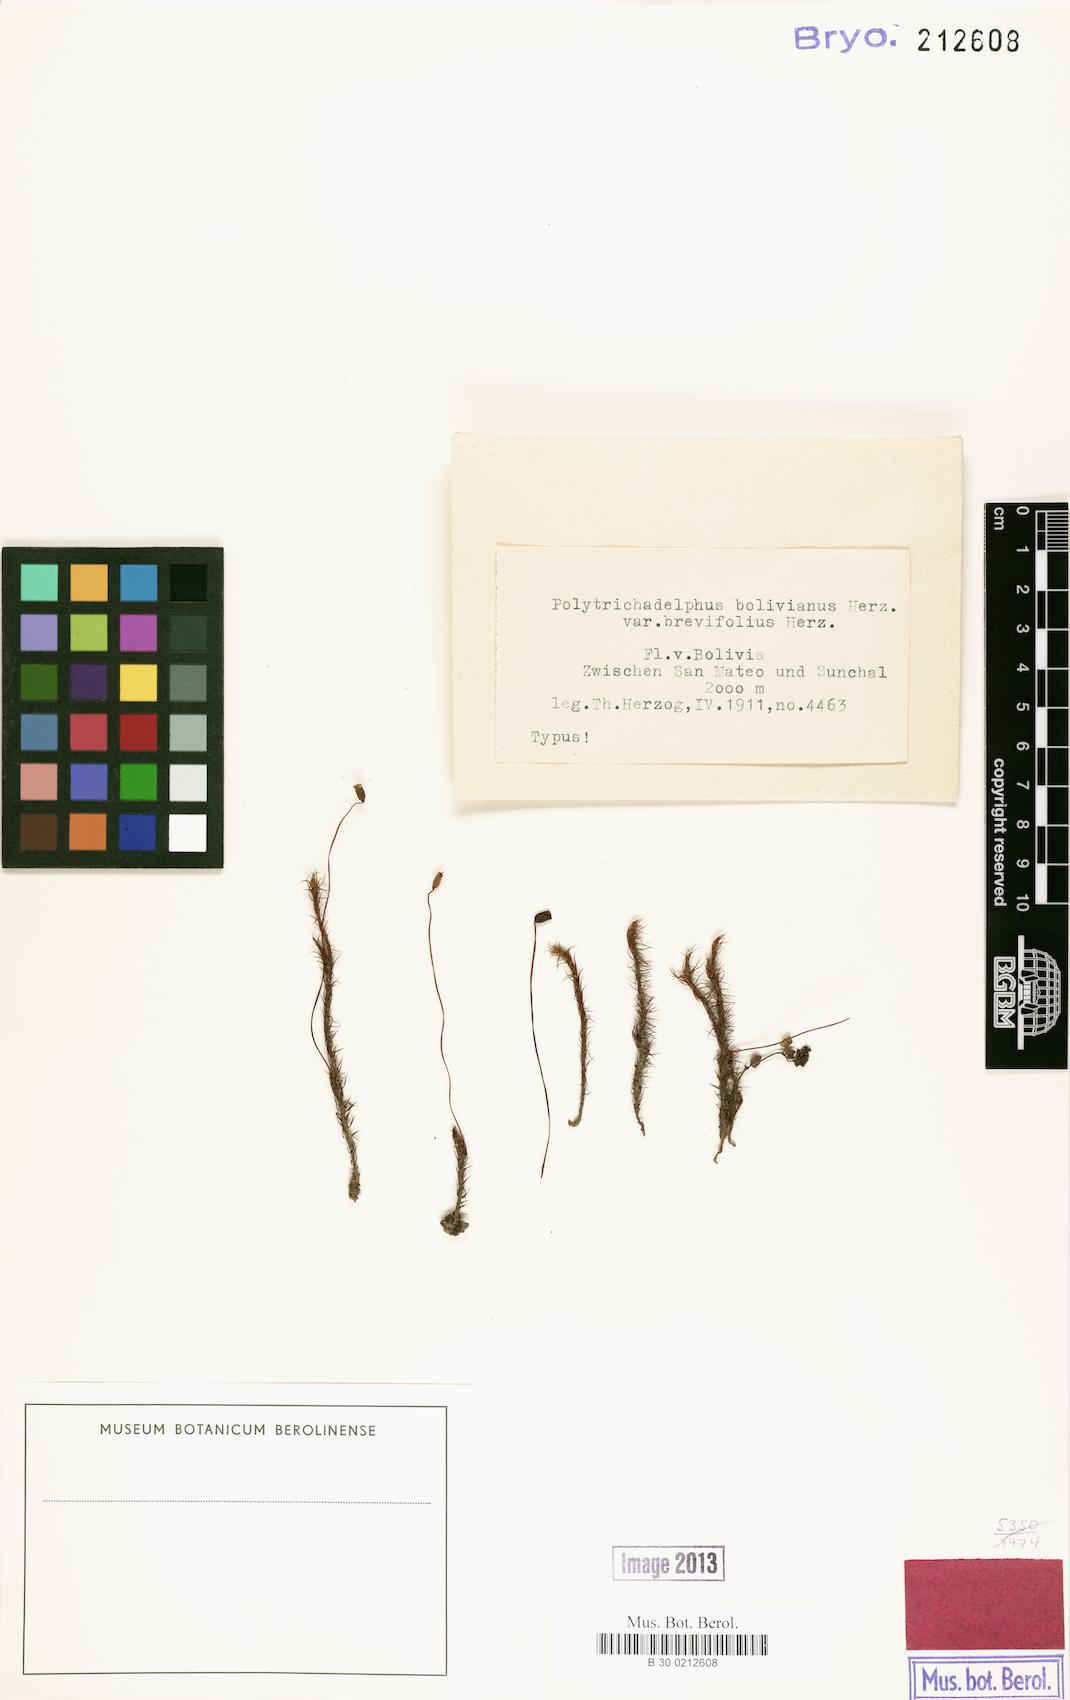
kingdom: Plantae
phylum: Bryophyta
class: Polytrichopsida
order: Polytrichales
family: Polytrichaceae
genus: Polytrichadelphus
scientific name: Polytrichadelphus longisetus
